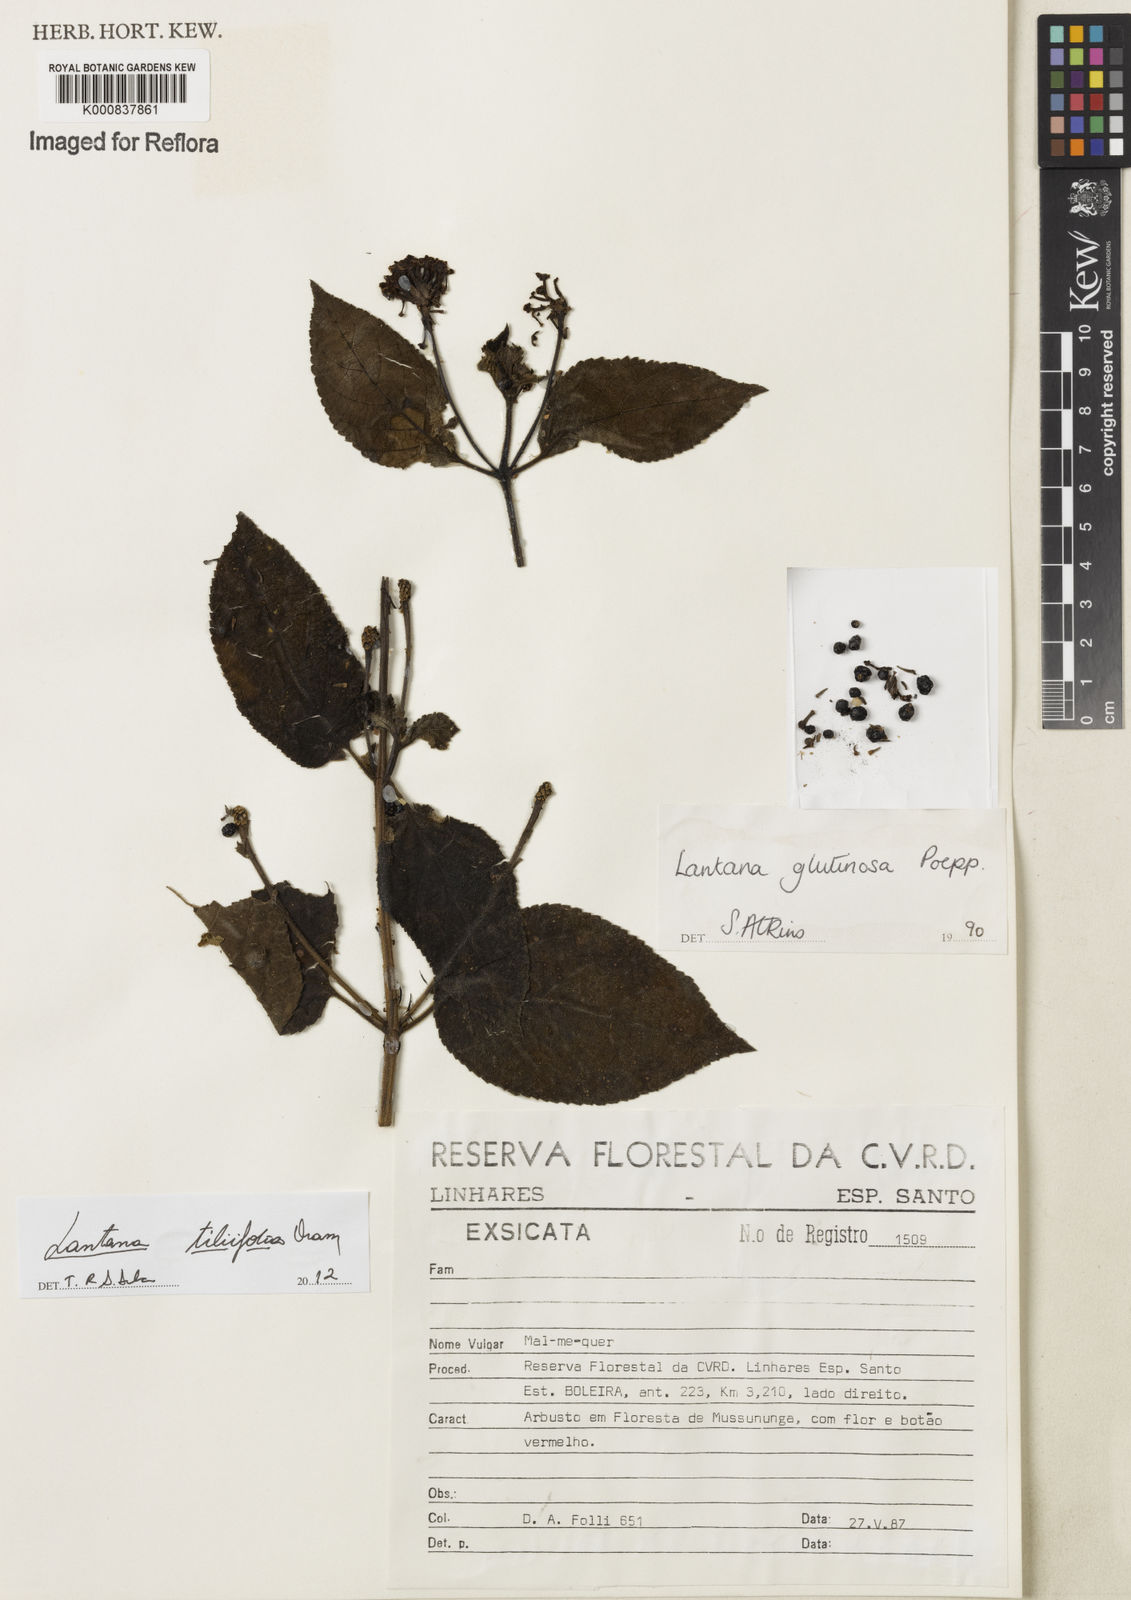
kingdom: Plantae
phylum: Tracheophyta
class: Magnoliopsida
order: Lamiales
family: Verbenaceae
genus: Lantana
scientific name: Lantana
